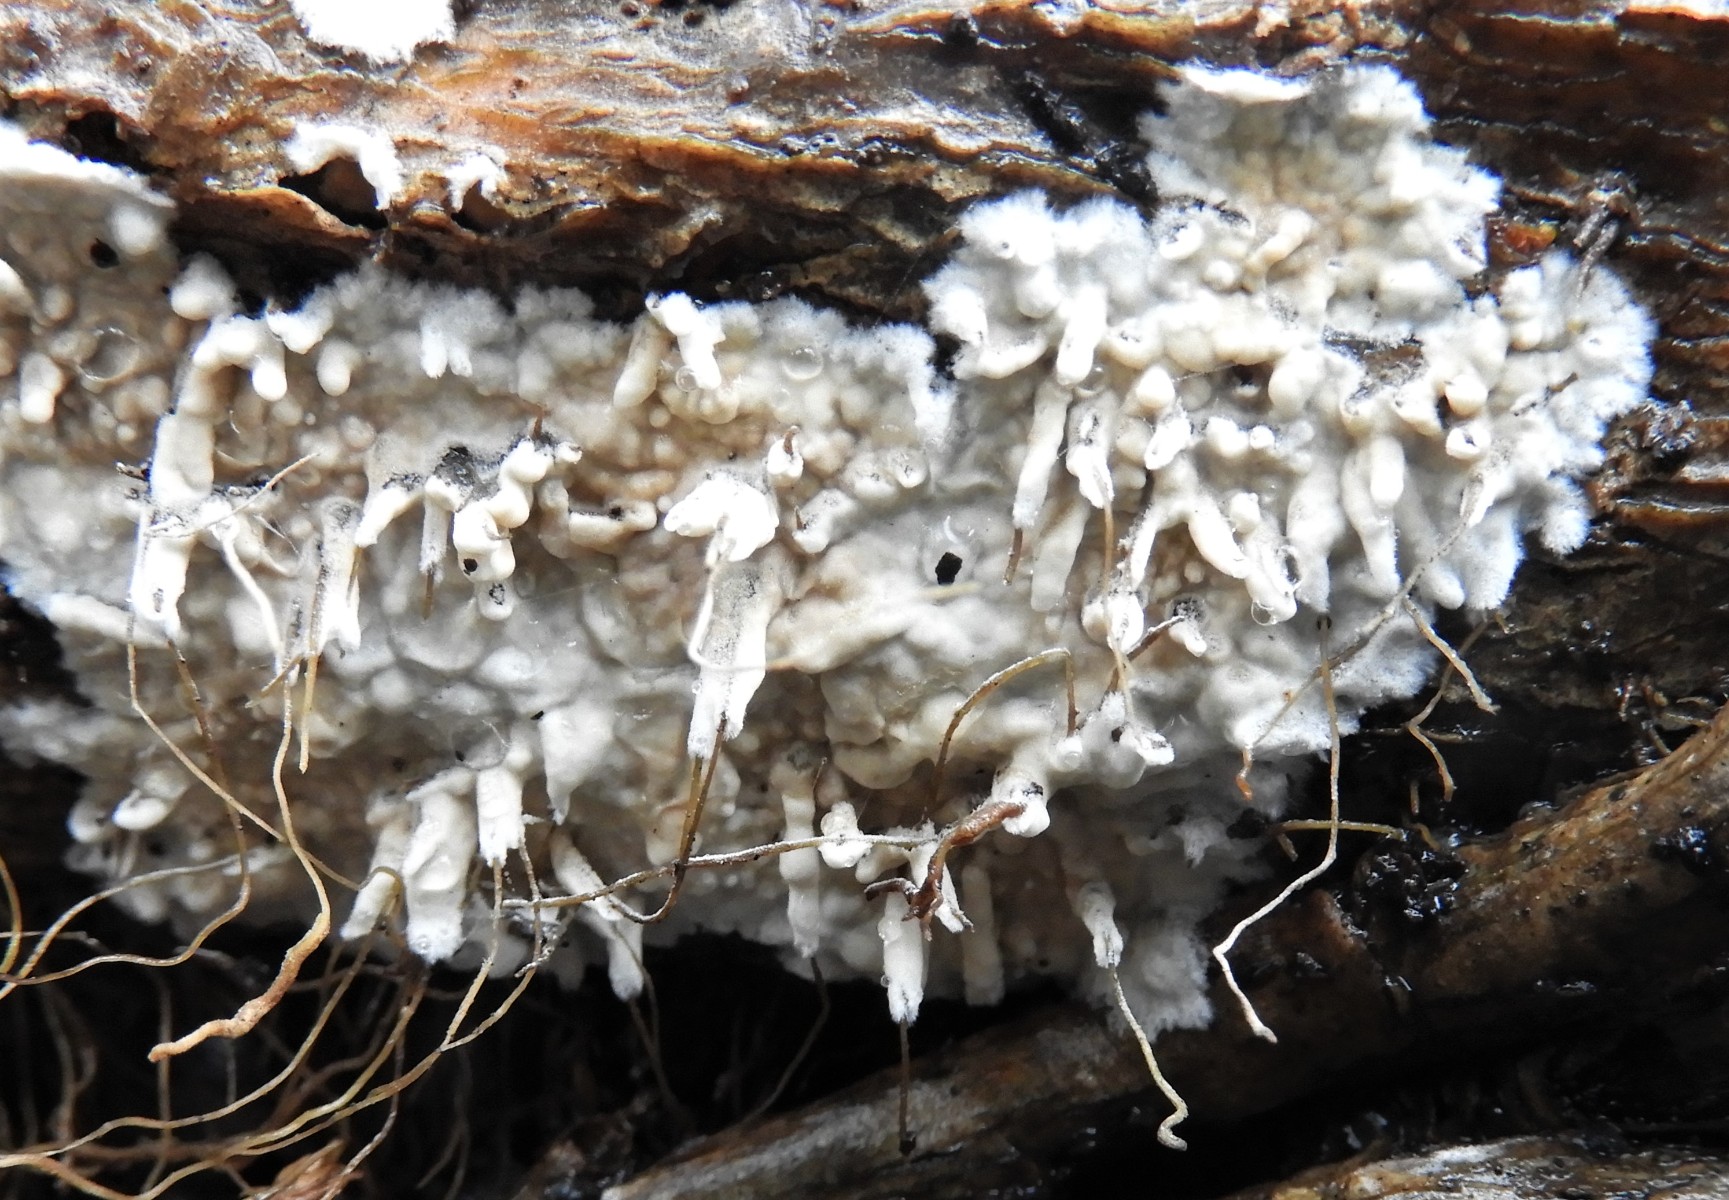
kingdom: Fungi
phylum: Basidiomycota
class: Agaricomycetes
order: Corticiales
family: Corticiaceae
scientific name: Corticiaceae
